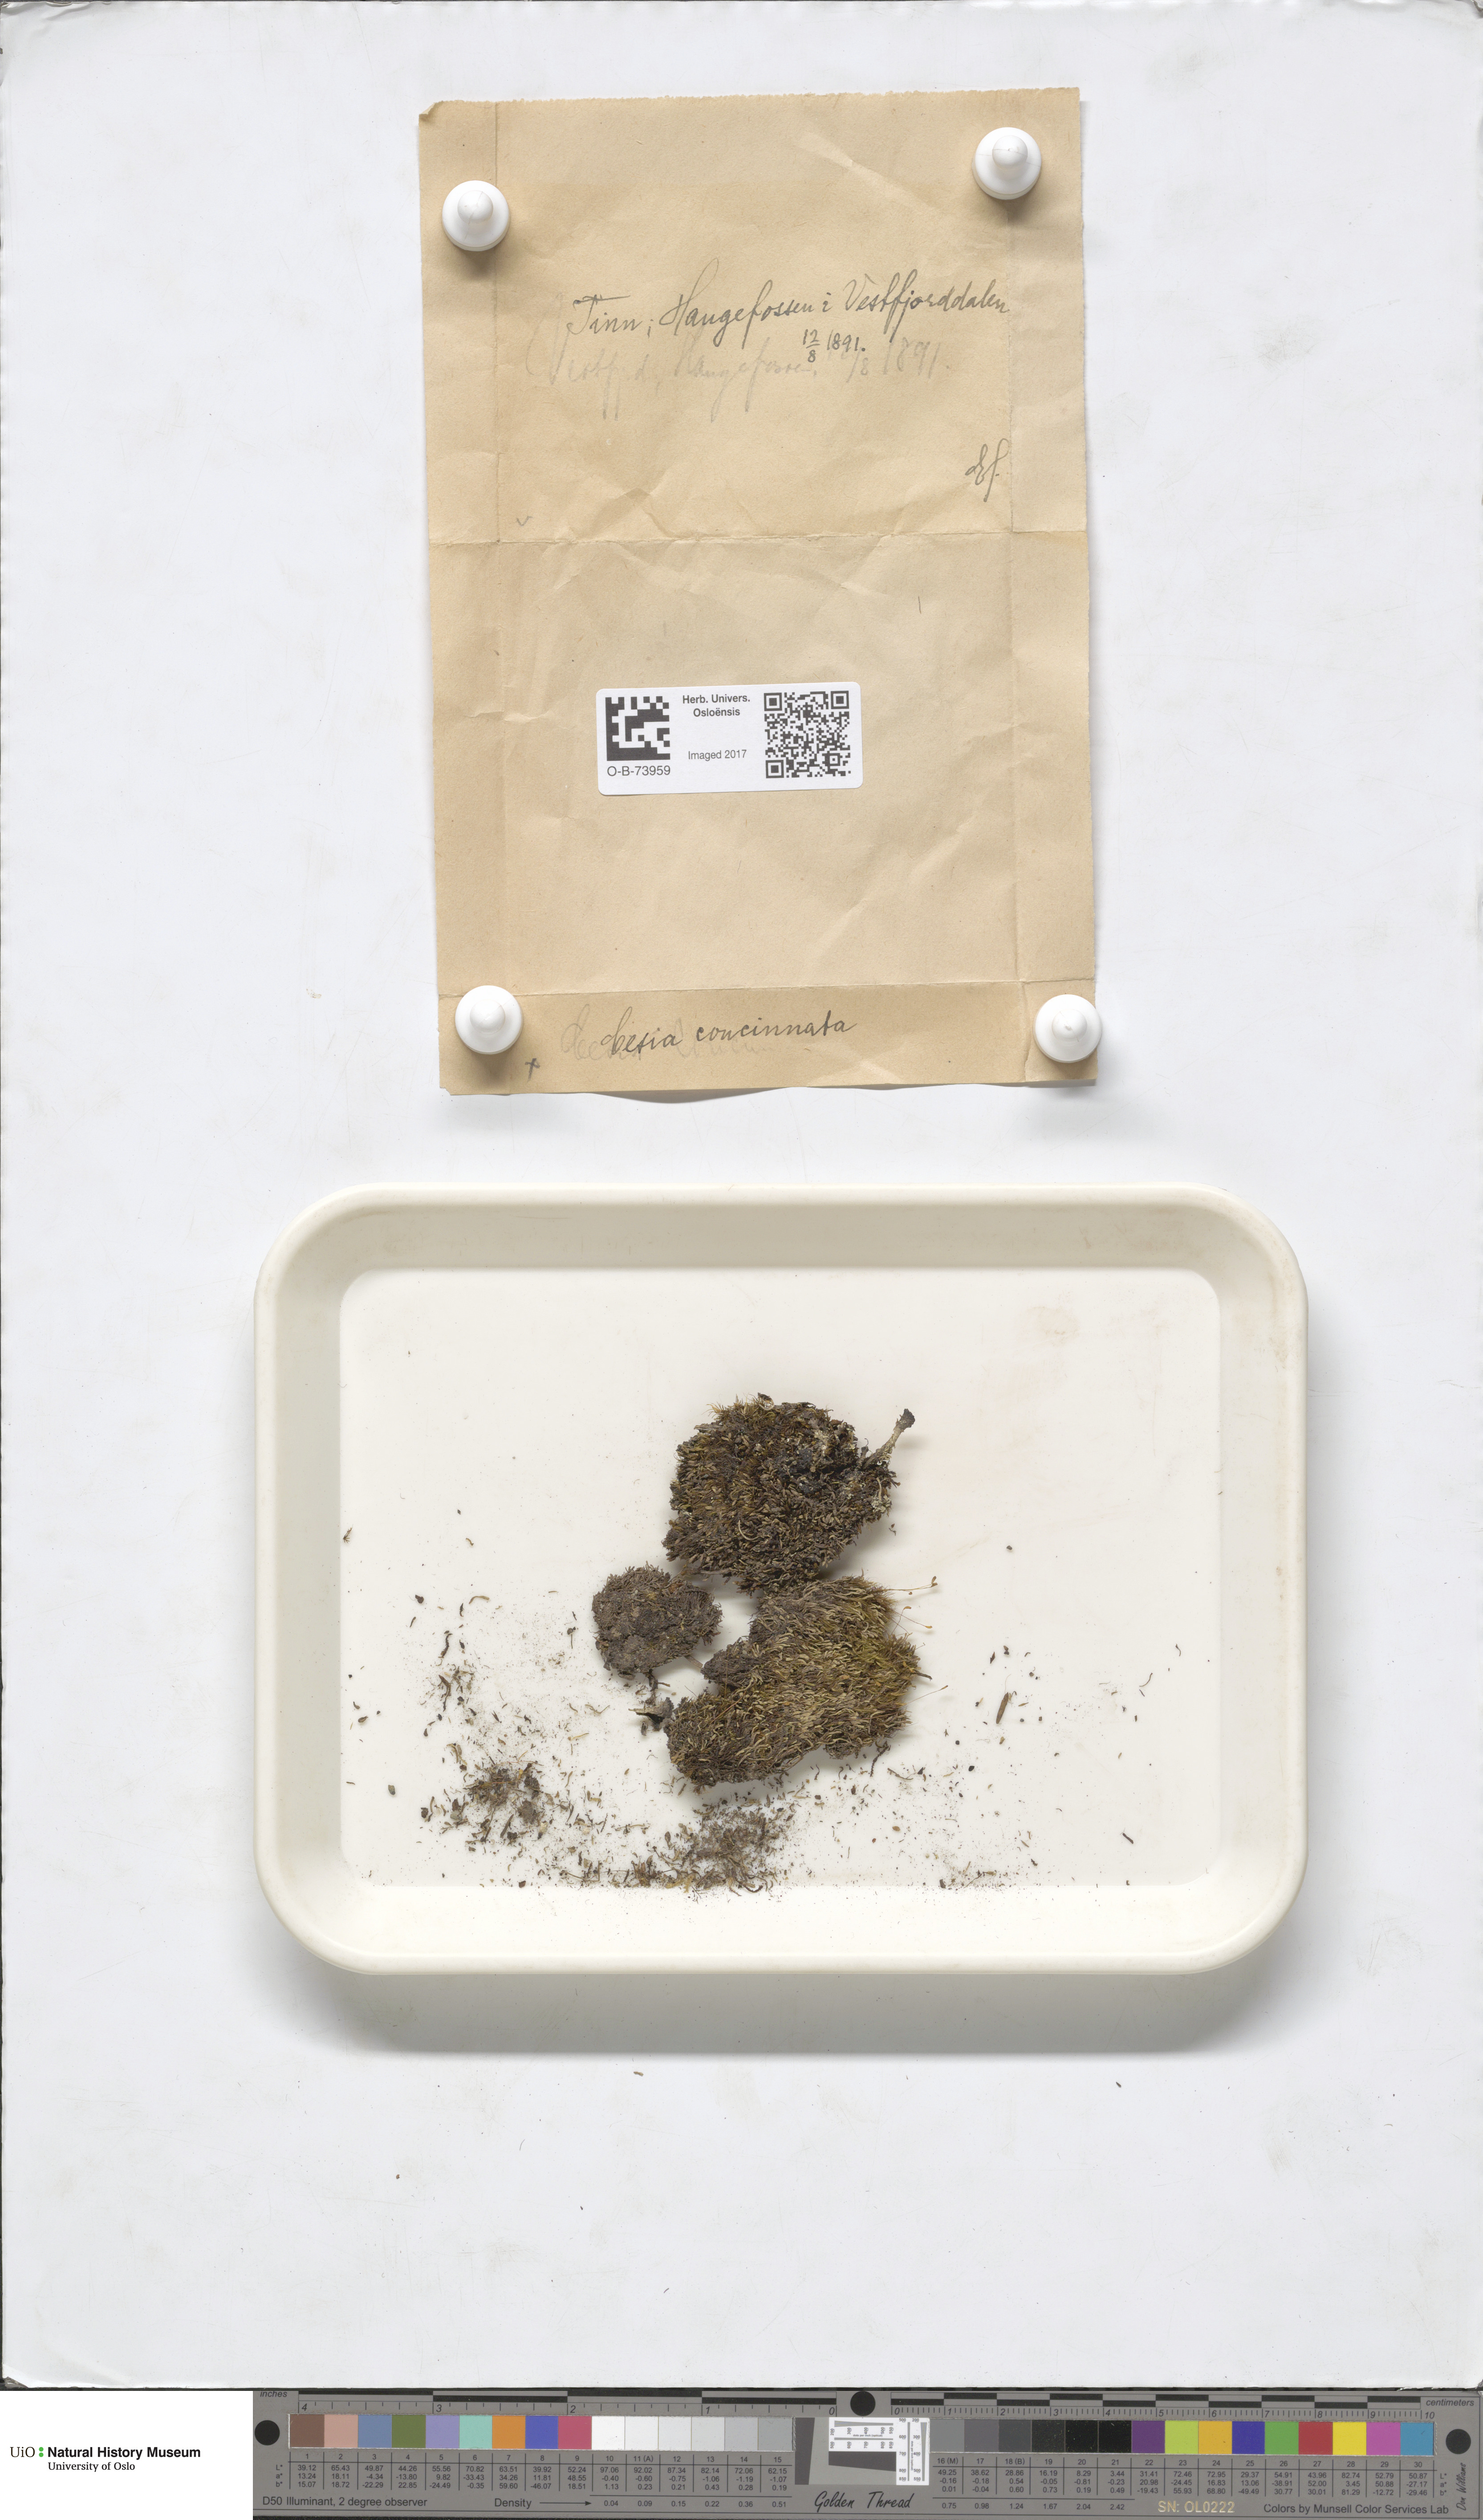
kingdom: Plantae
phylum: Marchantiophyta
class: Jungermanniopsida
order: Jungermanniales
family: Gymnomitriaceae
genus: Marsupella
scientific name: Marsupella apiculata
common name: Pointed frostwort
